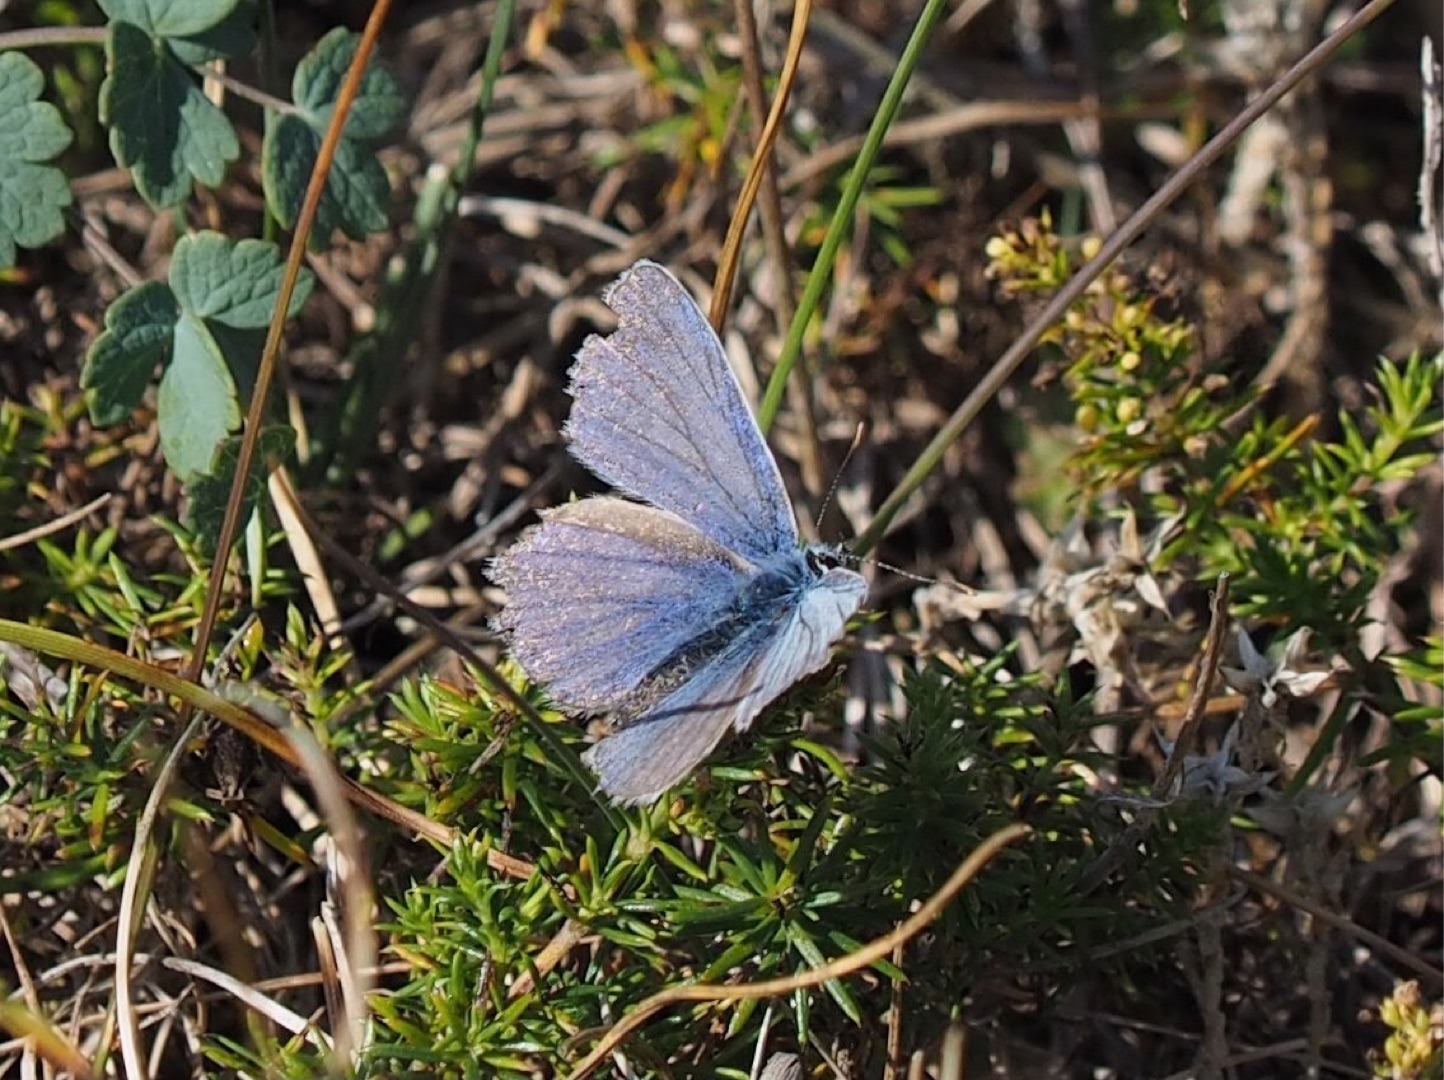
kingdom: Animalia
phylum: Arthropoda
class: Insecta
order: Lepidoptera
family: Lycaenidae
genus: Polyommatus
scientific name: Polyommatus icarus
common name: Almindelig blåfugl
